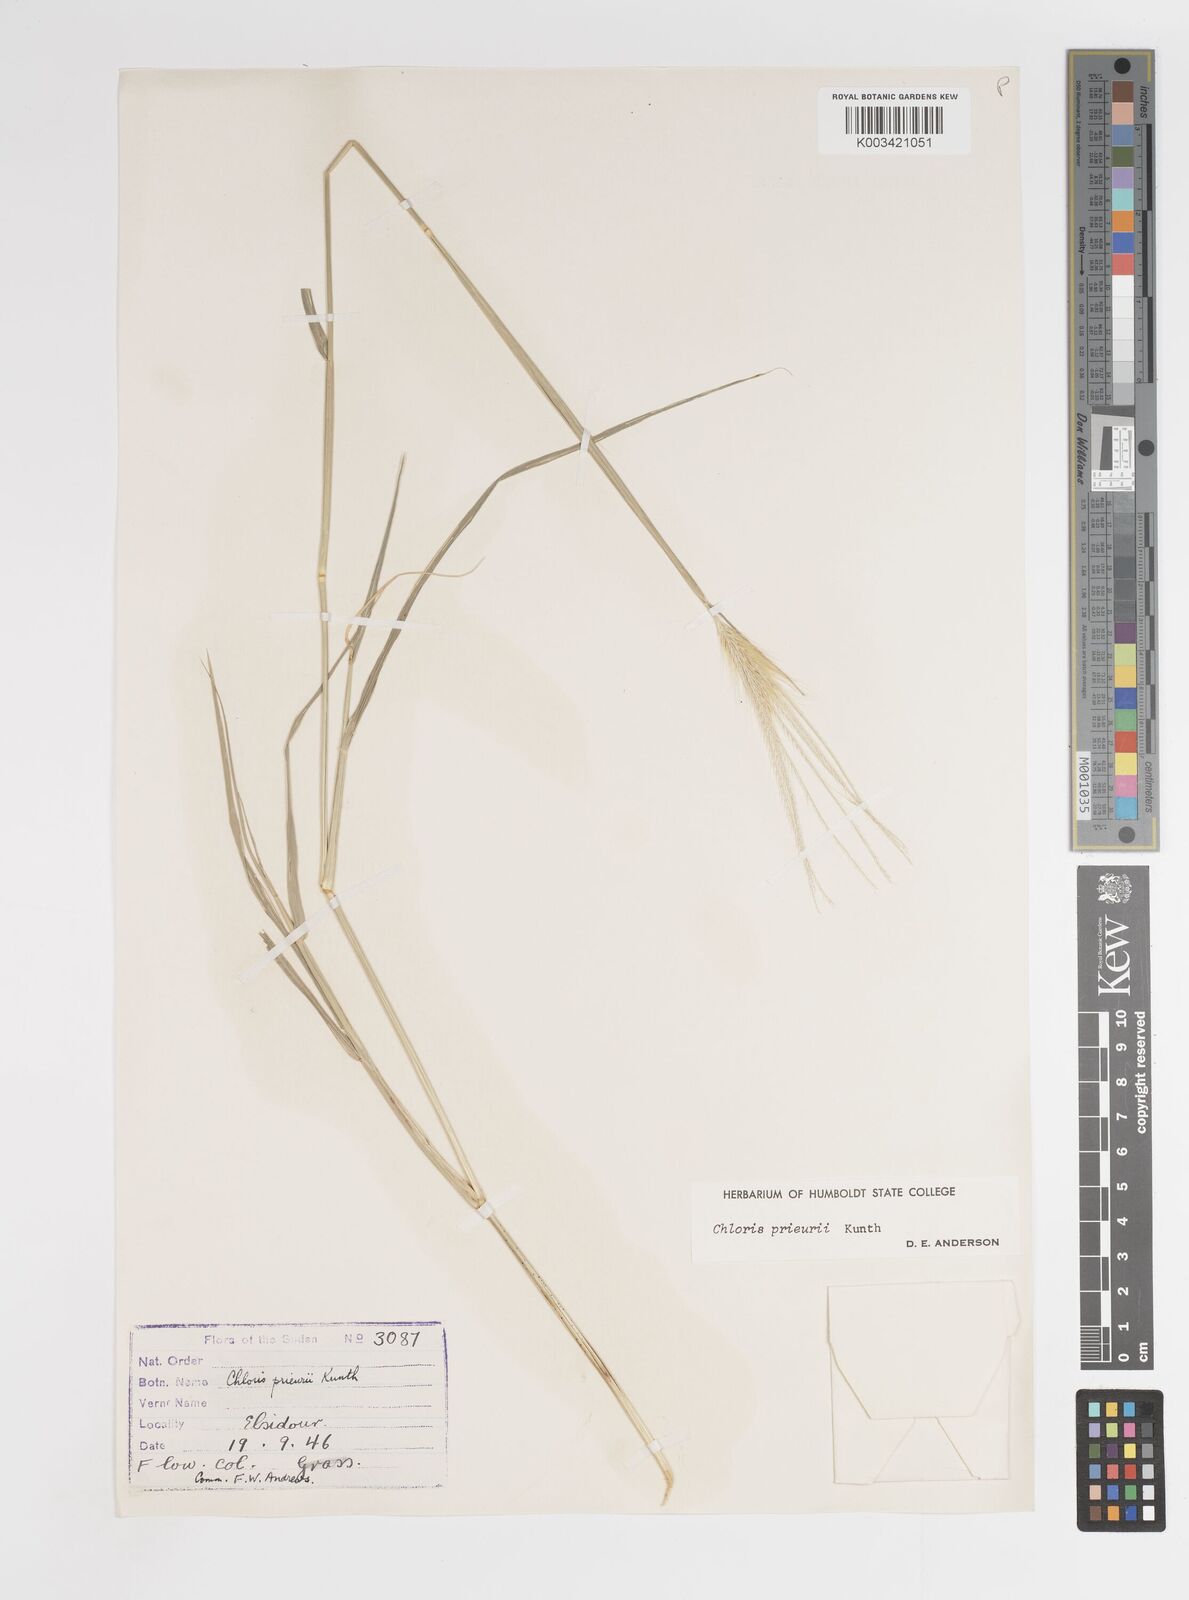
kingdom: Plantae
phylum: Tracheophyta
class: Liliopsida
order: Poales
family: Poaceae
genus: Enteropogon
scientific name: Enteropogon prieurii
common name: Prieur's umbrellagrass
